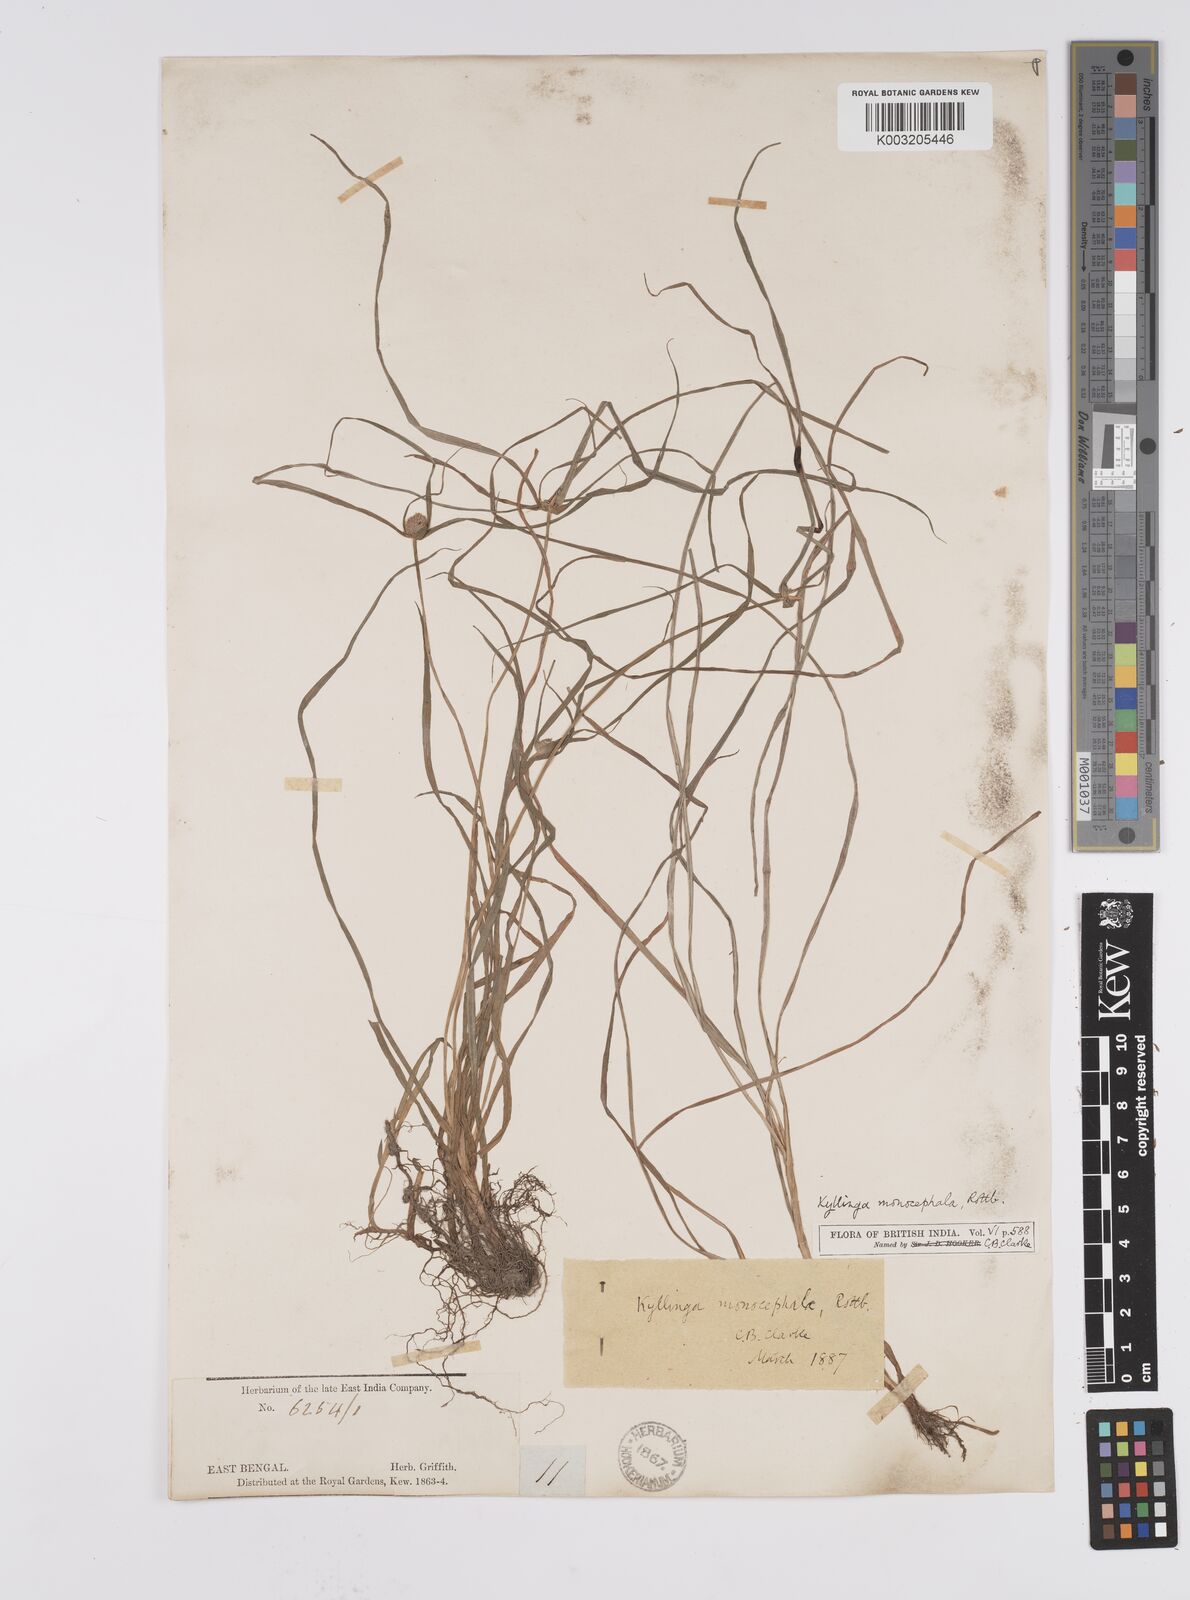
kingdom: Plantae
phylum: Tracheophyta
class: Liliopsida
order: Poales
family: Cyperaceae
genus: Cyperus
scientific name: Cyperus nemoralis
